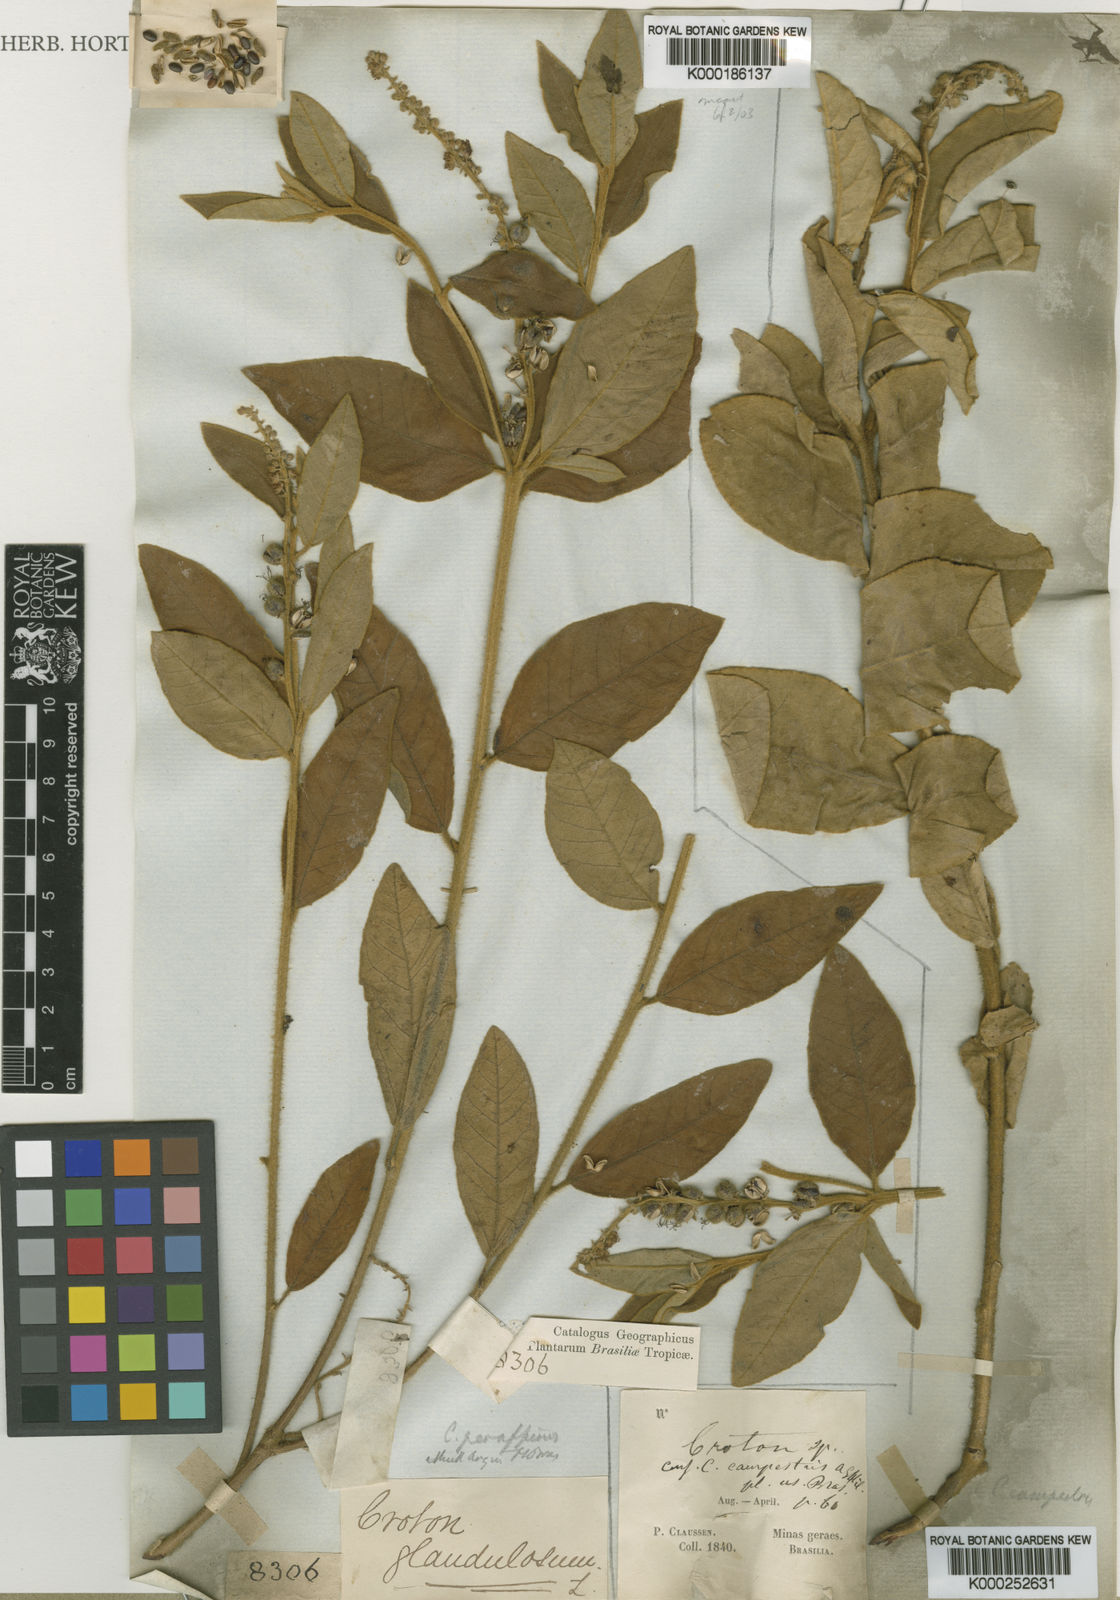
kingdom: Plantae
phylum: Tracheophyta
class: Magnoliopsida
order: Malpighiales
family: Euphorbiaceae
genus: Croton
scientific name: Croton
